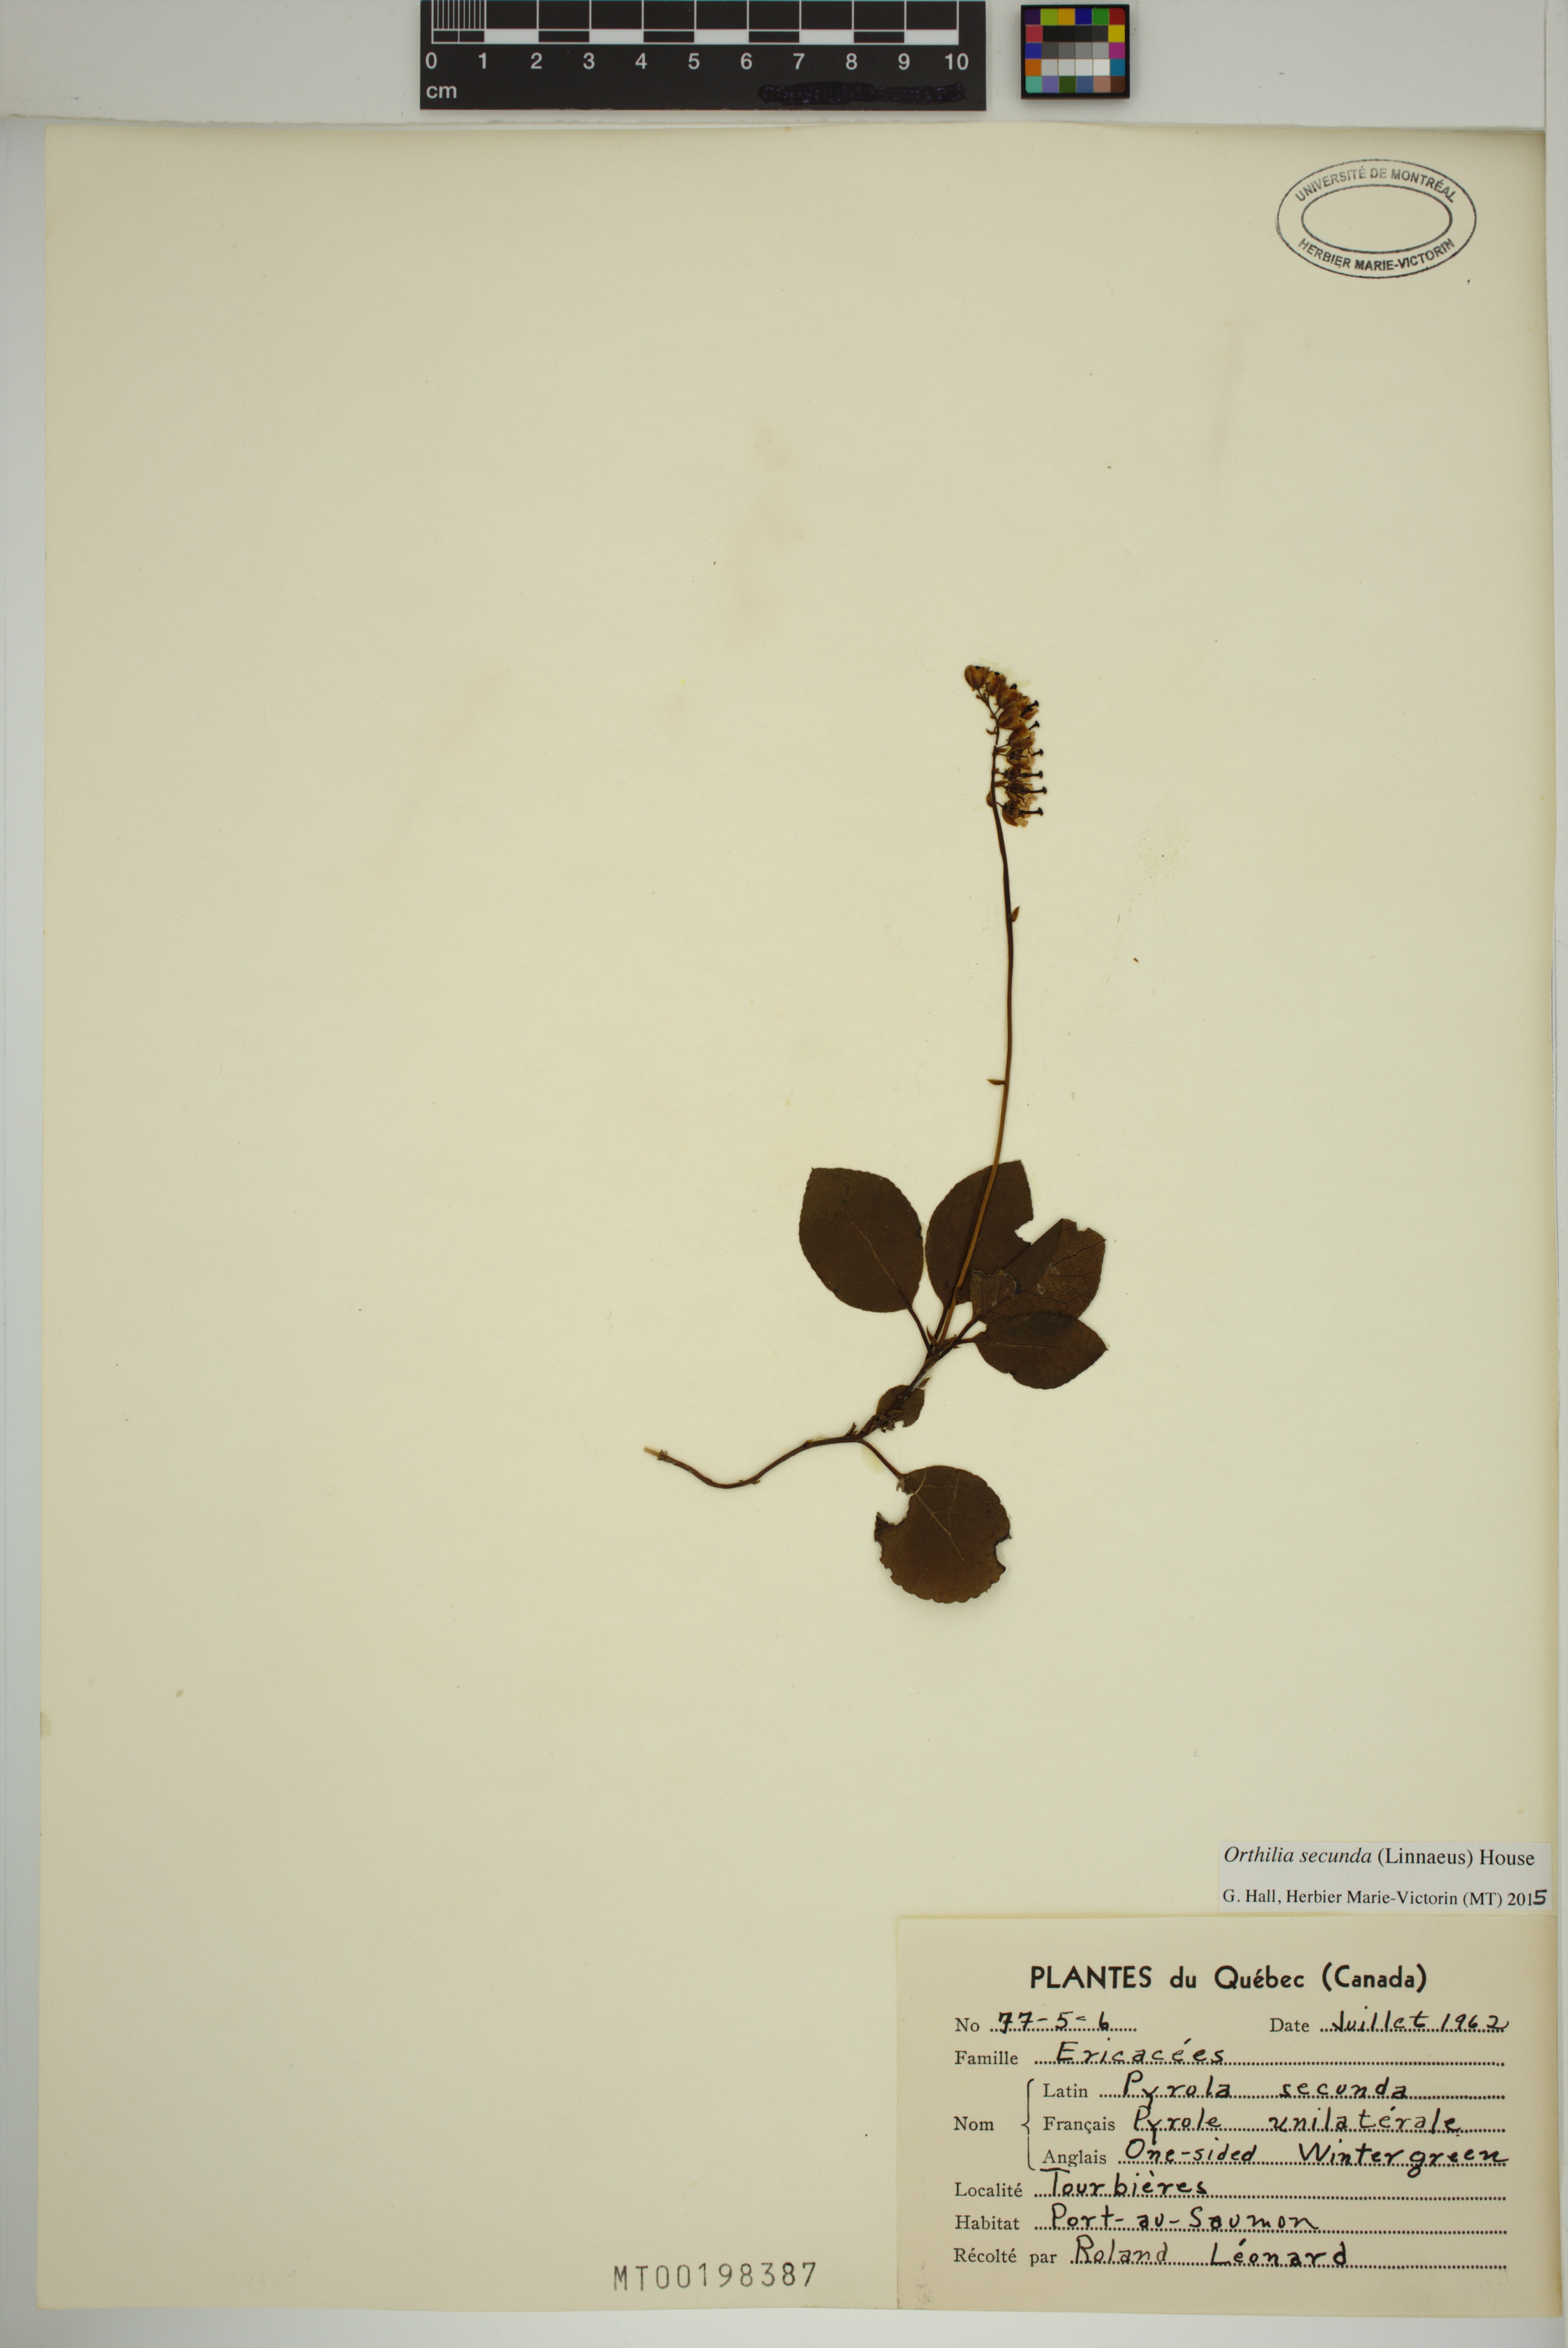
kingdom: Plantae
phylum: Tracheophyta
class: Magnoliopsida
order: Ericales
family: Ericaceae
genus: Orthilia
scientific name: Orthilia secunda
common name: One-sided orthilia
